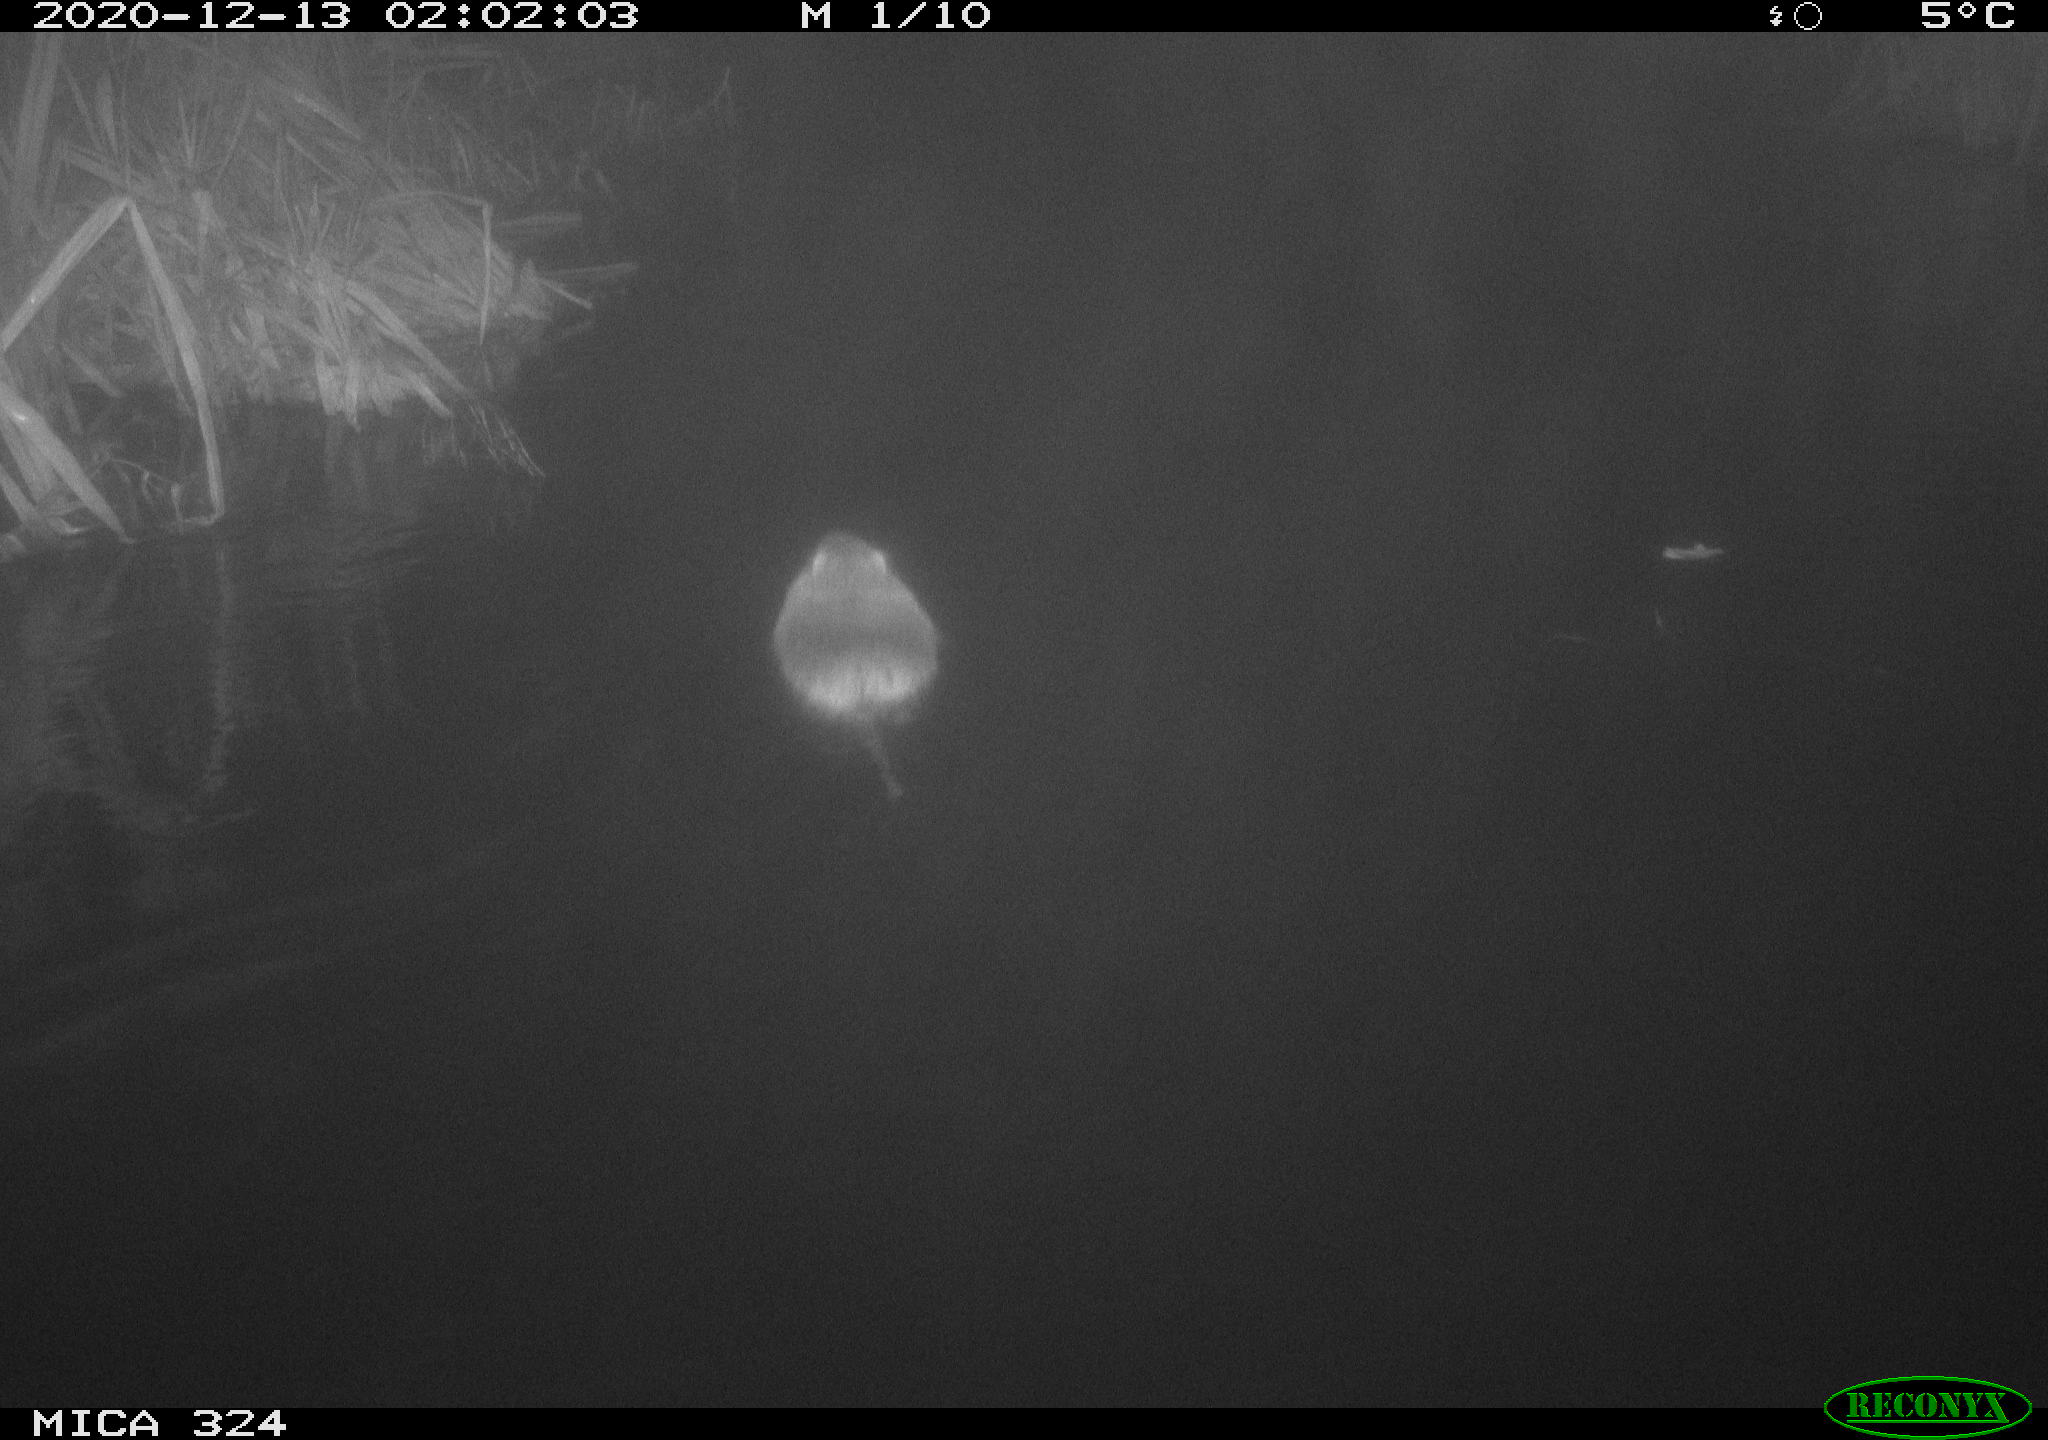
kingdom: Animalia
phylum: Chordata
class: Mammalia
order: Rodentia
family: Myocastoridae
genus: Myocastor
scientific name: Myocastor coypus
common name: Coypu
